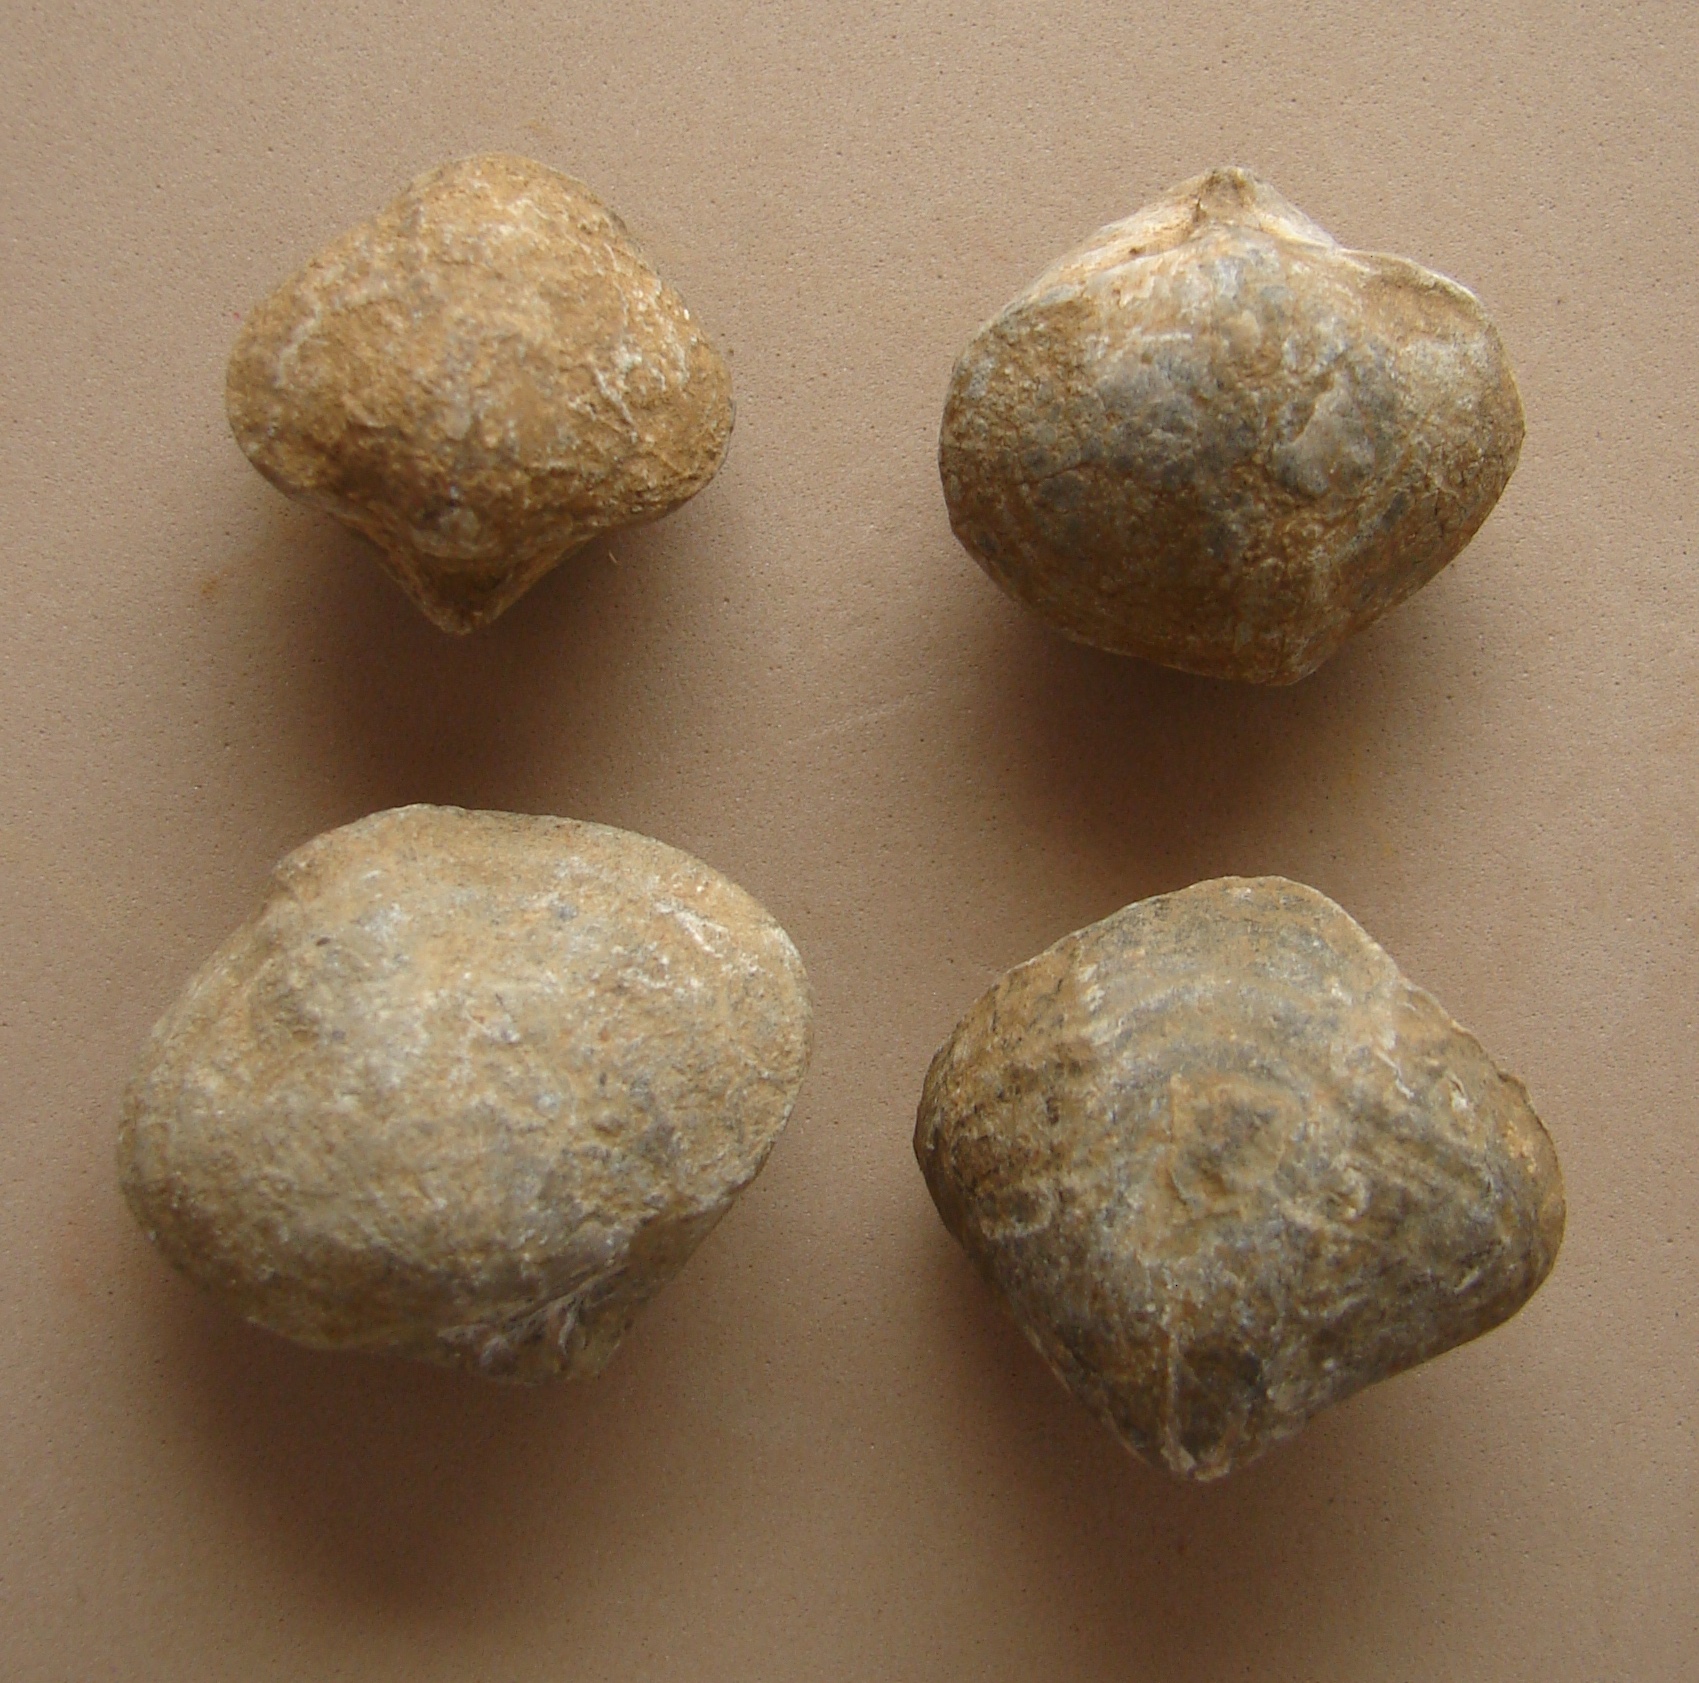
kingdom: Animalia
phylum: Brachiopoda
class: Rhynchonellata
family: Spiriferinidae
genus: Spiriferina
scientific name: Spiriferina
